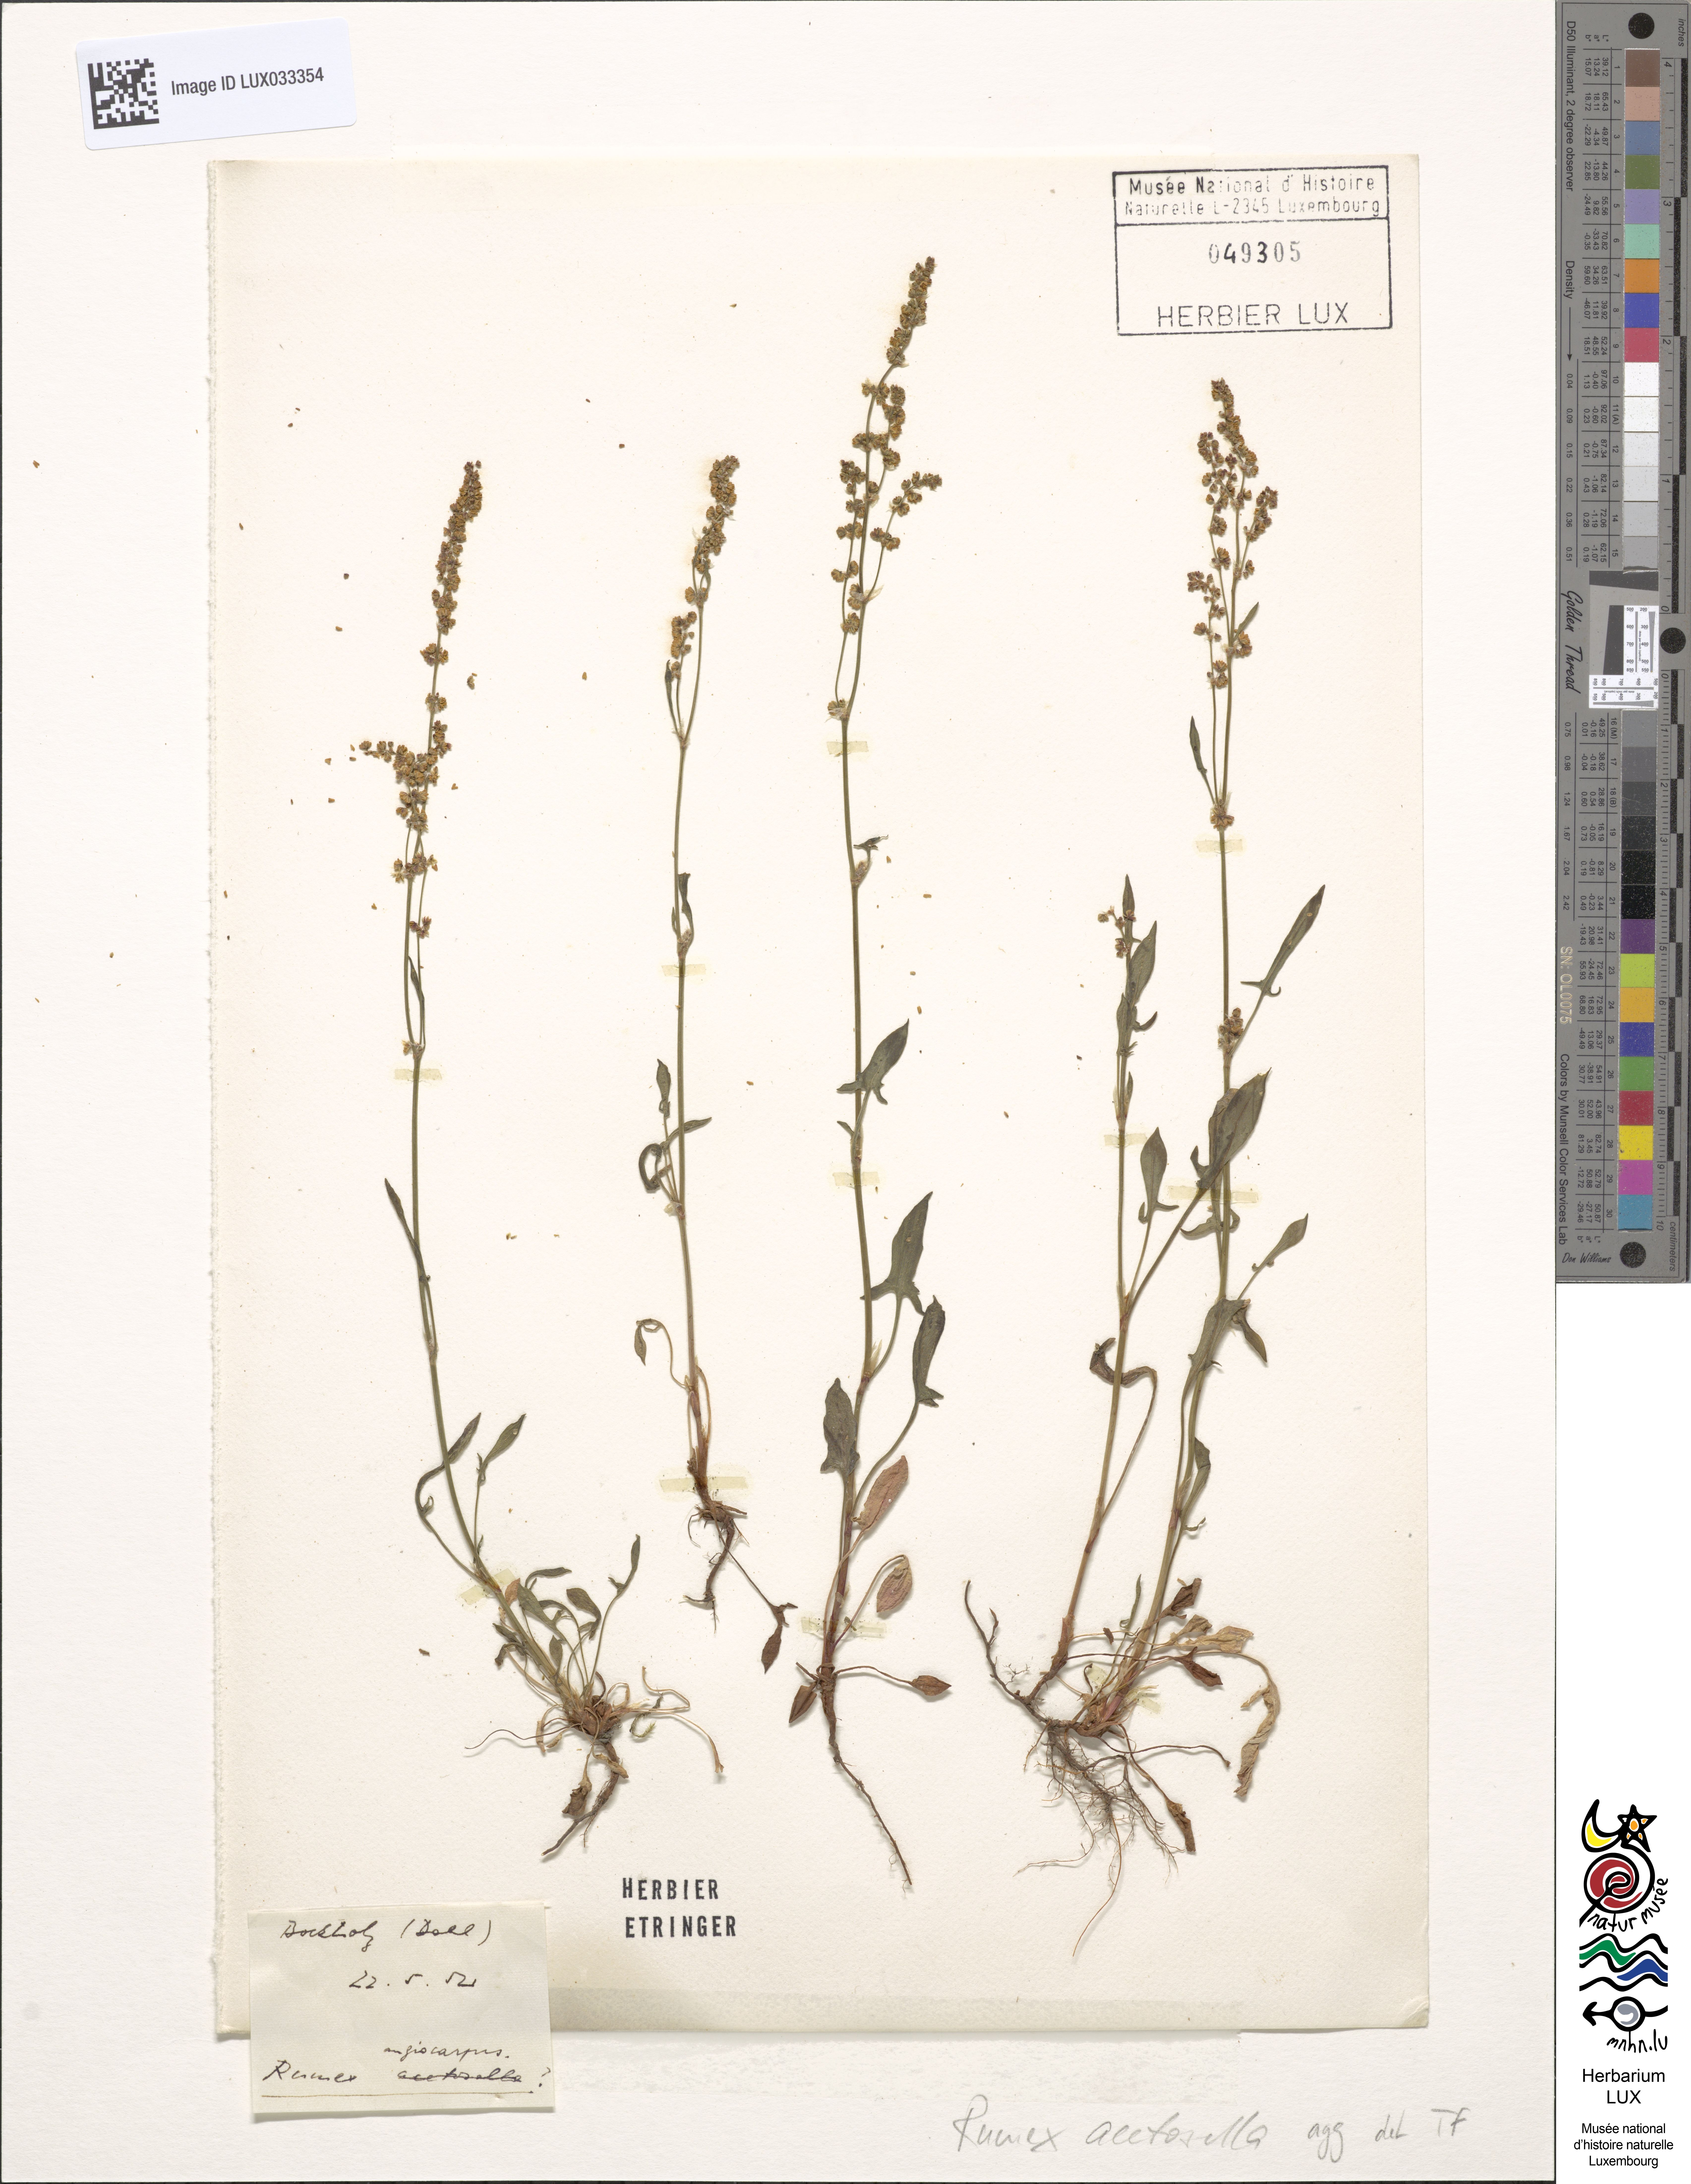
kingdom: Plantae
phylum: Tracheophyta
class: Magnoliopsida
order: Caryophyllales
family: Polygonaceae
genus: Rumex
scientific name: Rumex acetosella
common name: Common sheep sorrel
